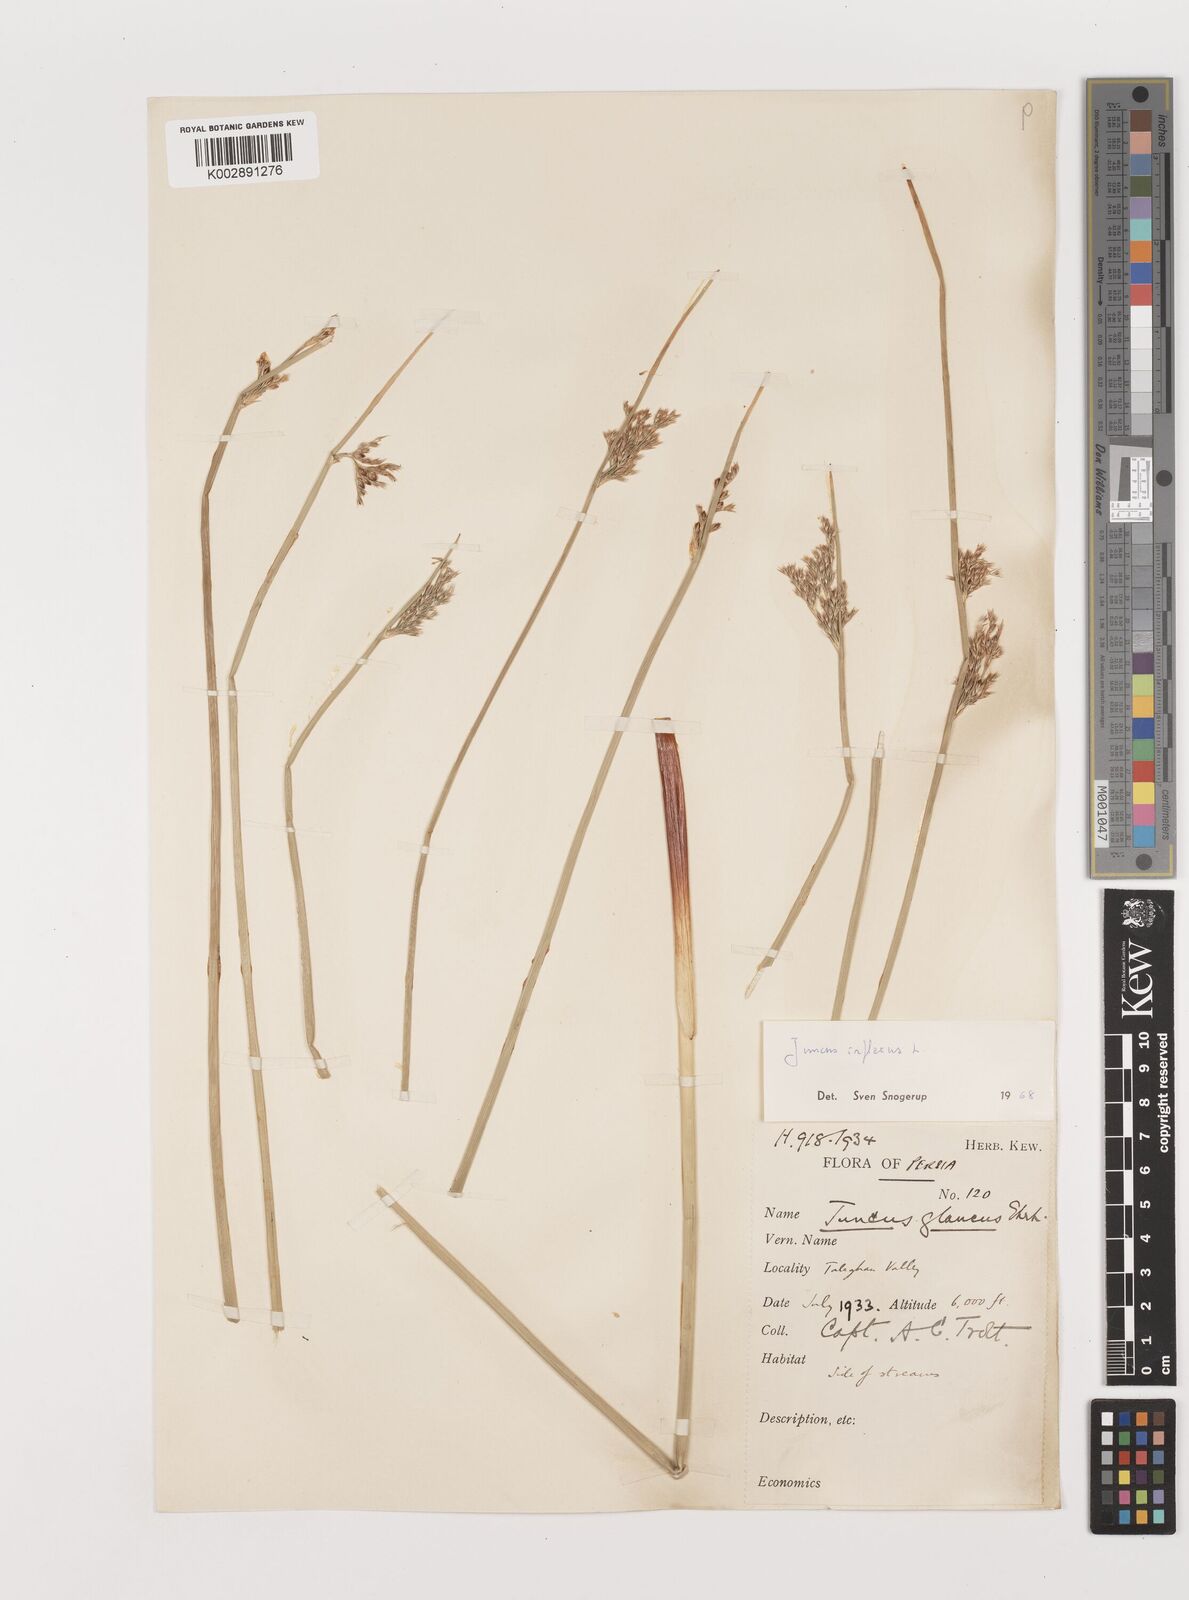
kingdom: Plantae
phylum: Tracheophyta
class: Liliopsida
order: Poales
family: Juncaceae
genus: Juncus
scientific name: Juncus inflexus
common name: Hard rush
